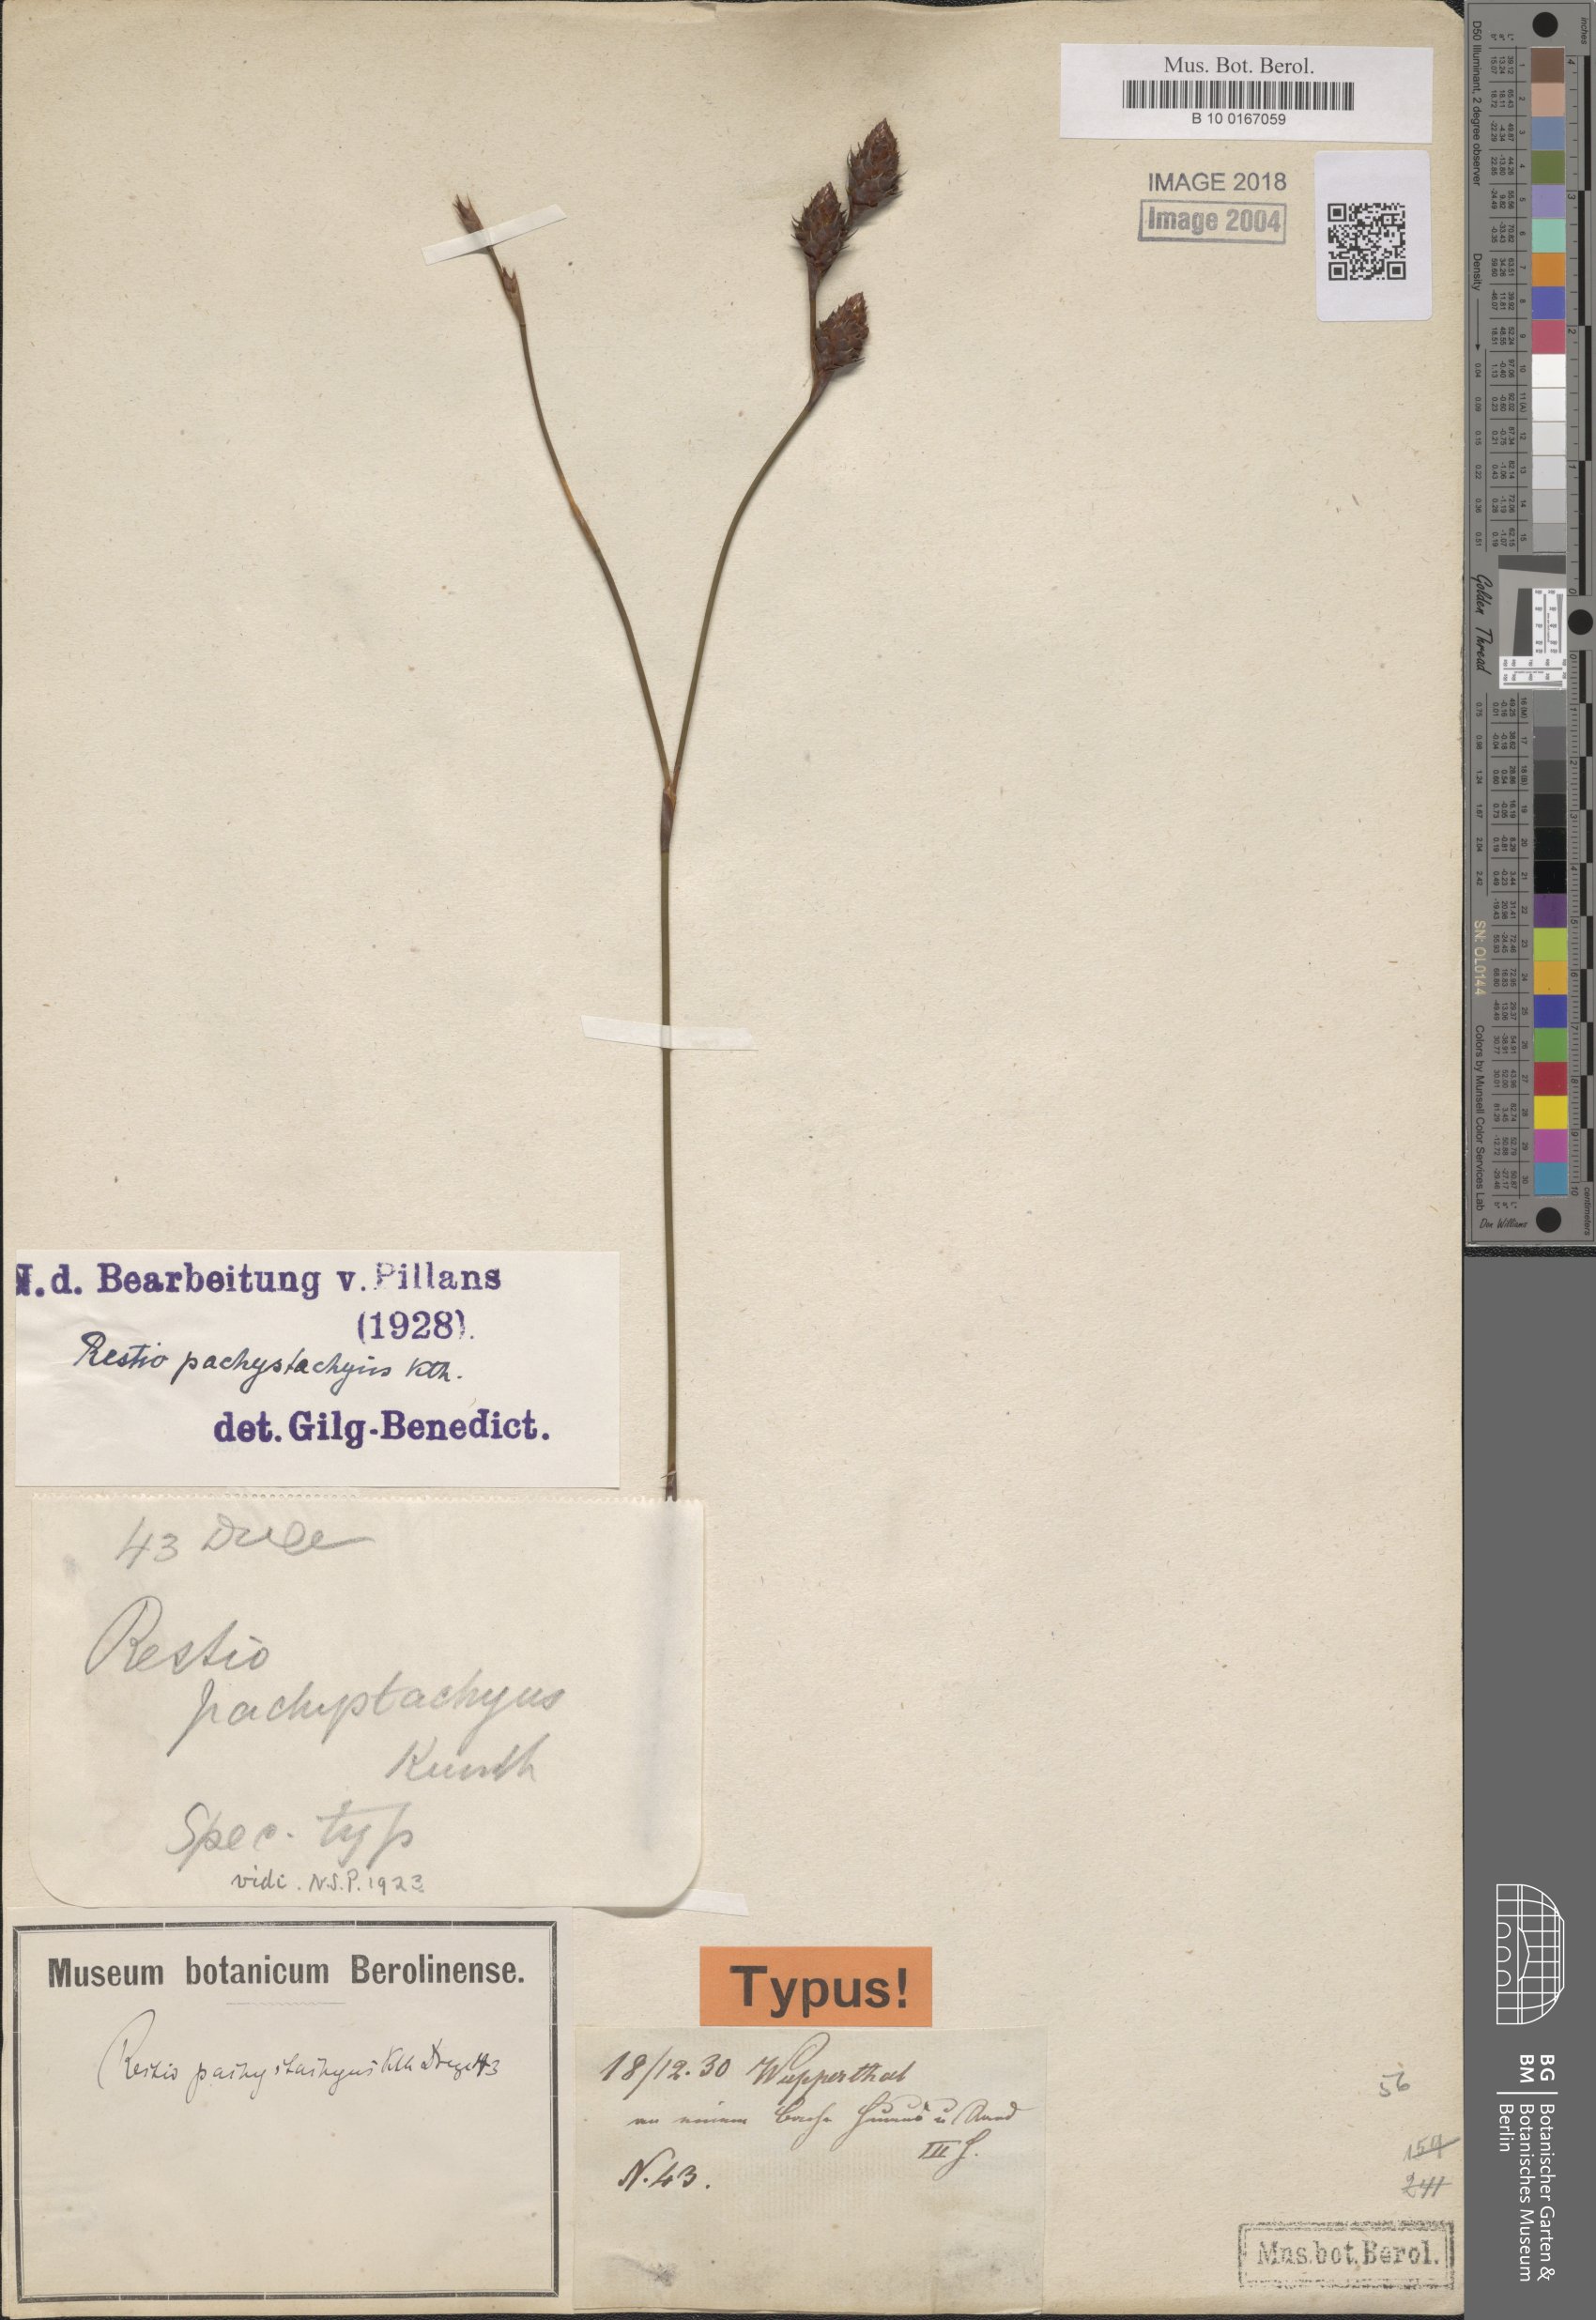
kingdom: Plantae
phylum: Tracheophyta
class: Liliopsida
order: Poales
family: Restionaceae
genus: Restio
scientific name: Restio pachystachyus
